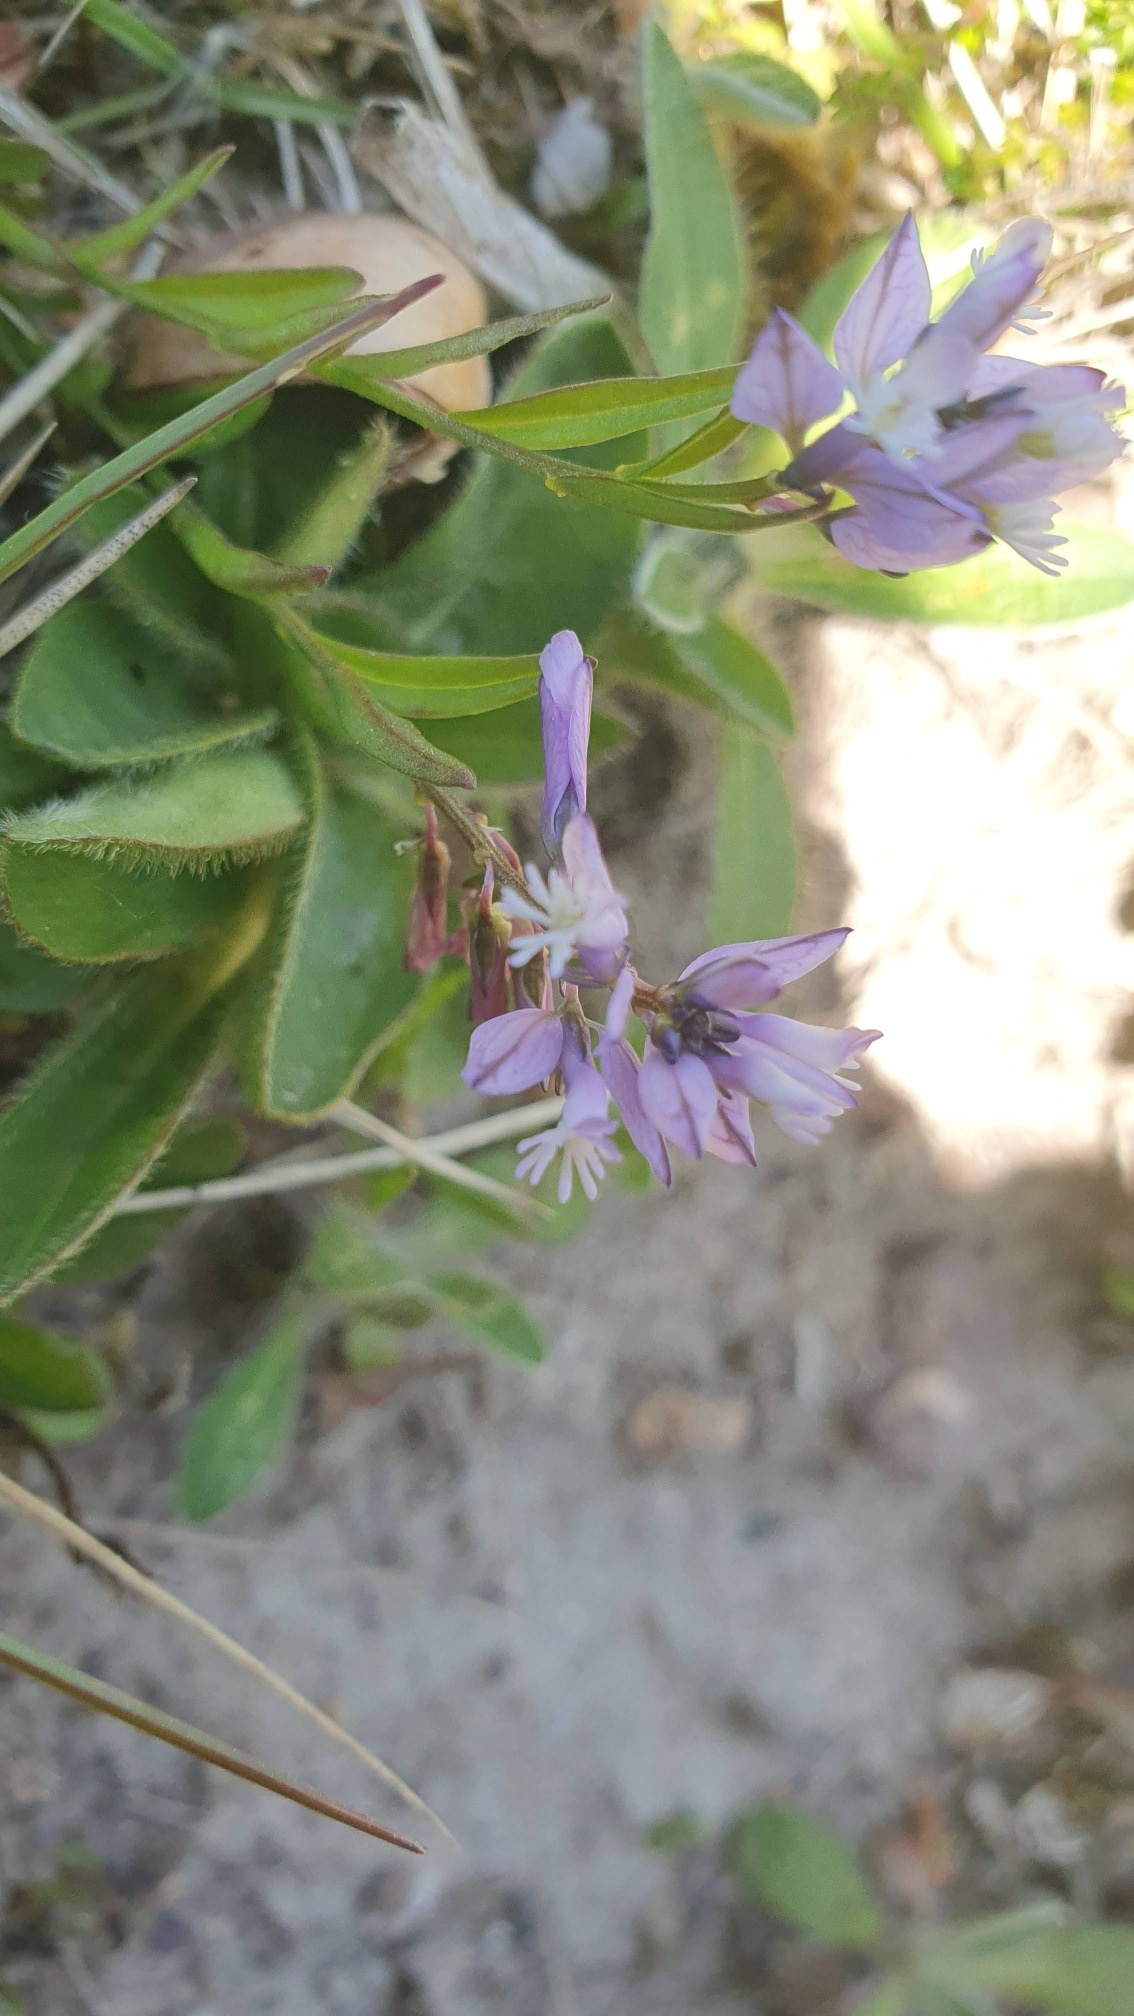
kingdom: Plantae
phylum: Tracheophyta
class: Magnoliopsida
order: Fabales
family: Polygalaceae
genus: Polygala
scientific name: Polygala vulgaris
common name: Almindelig mælkeurt
